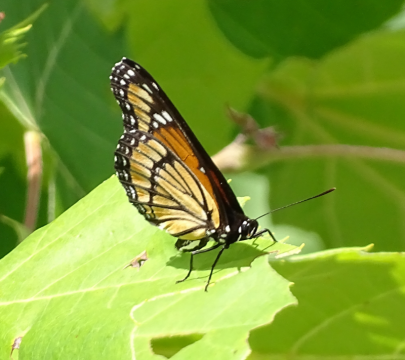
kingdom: Animalia
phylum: Arthropoda
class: Insecta
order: Lepidoptera
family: Nymphalidae
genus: Limenitis
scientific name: Limenitis archippus
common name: Viceroy
